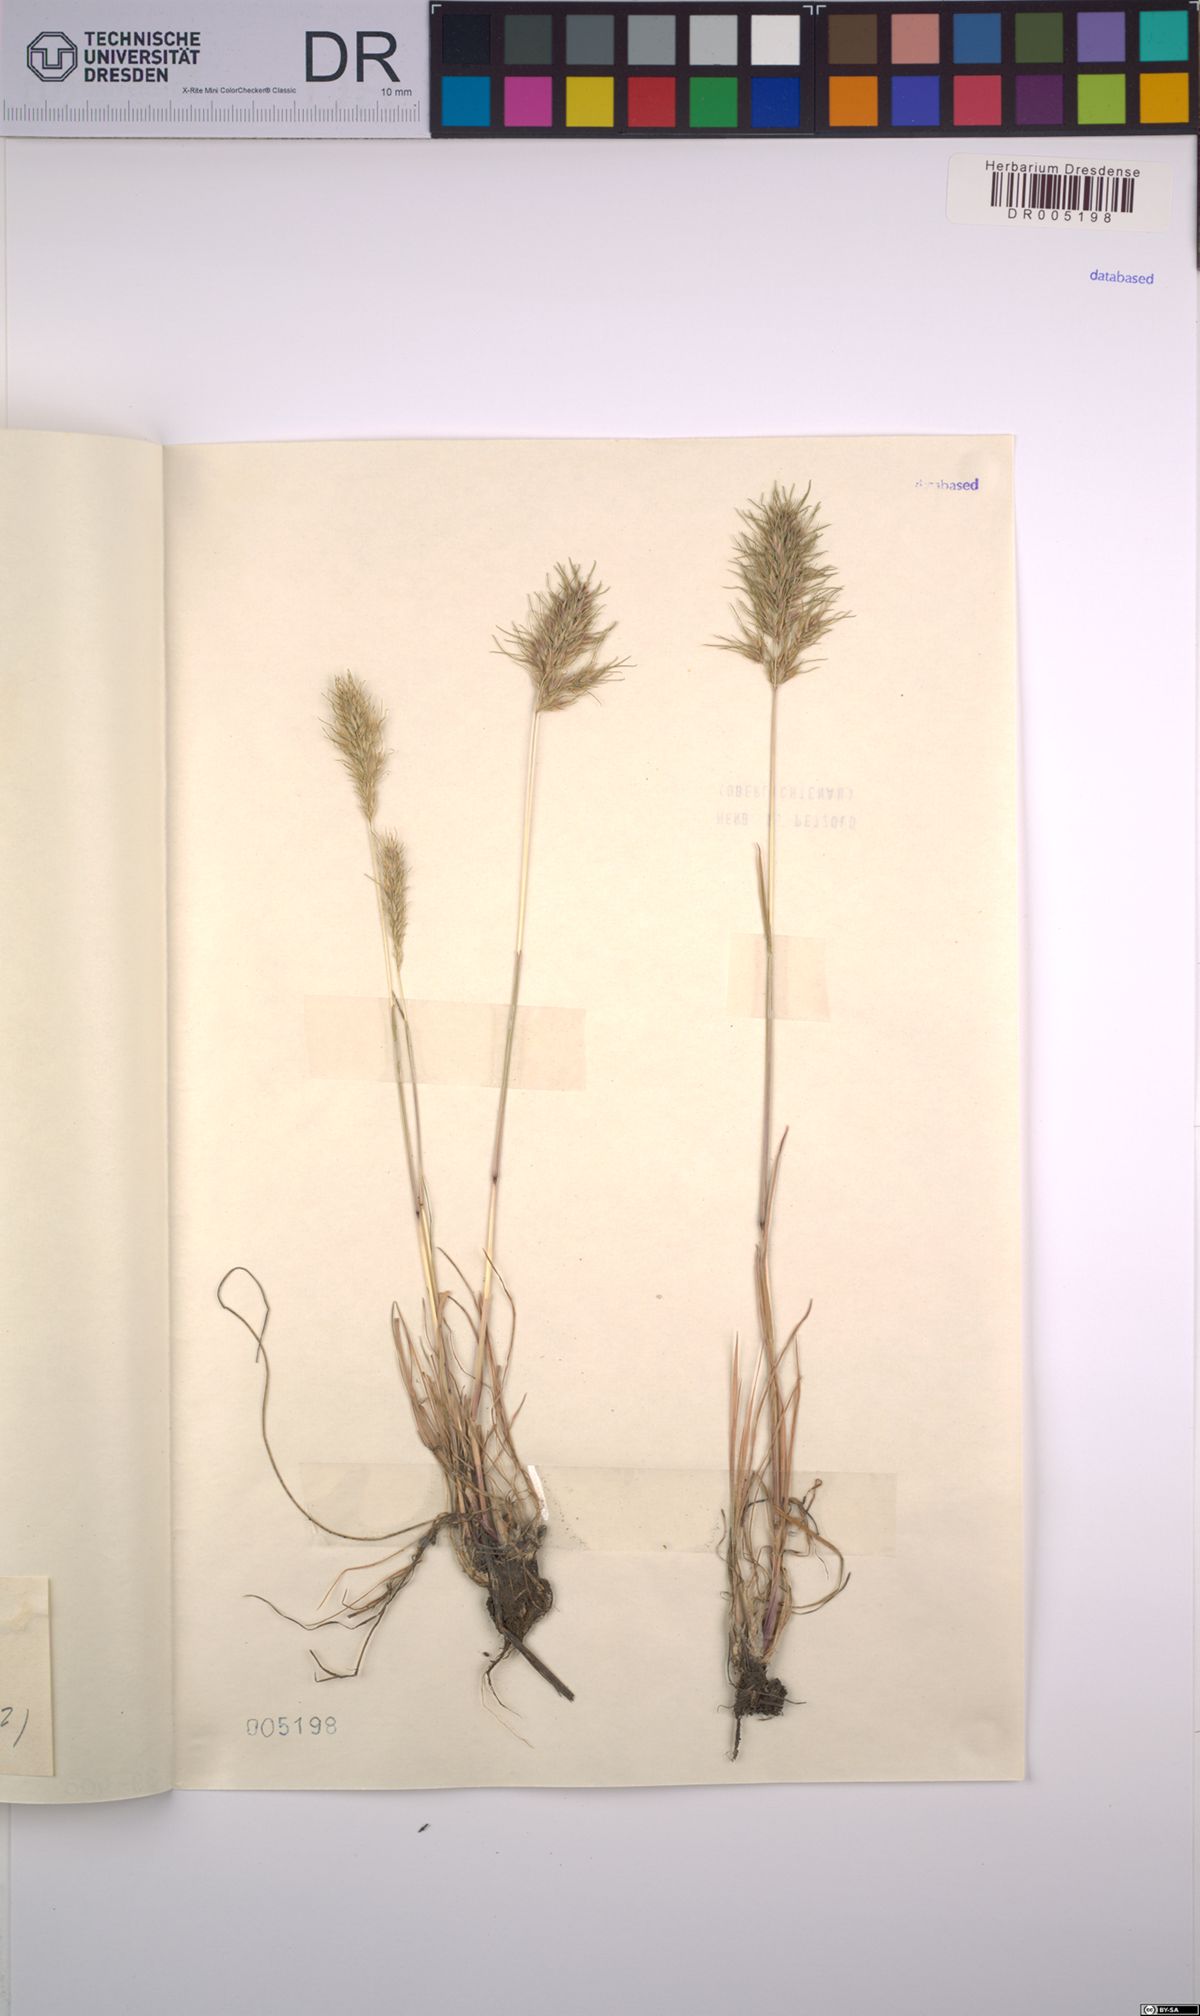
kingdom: Plantae
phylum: Tracheophyta
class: Liliopsida
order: Poales
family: Poaceae
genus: Poa
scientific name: Poa bulbosa
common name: Bulbous bluegrass
